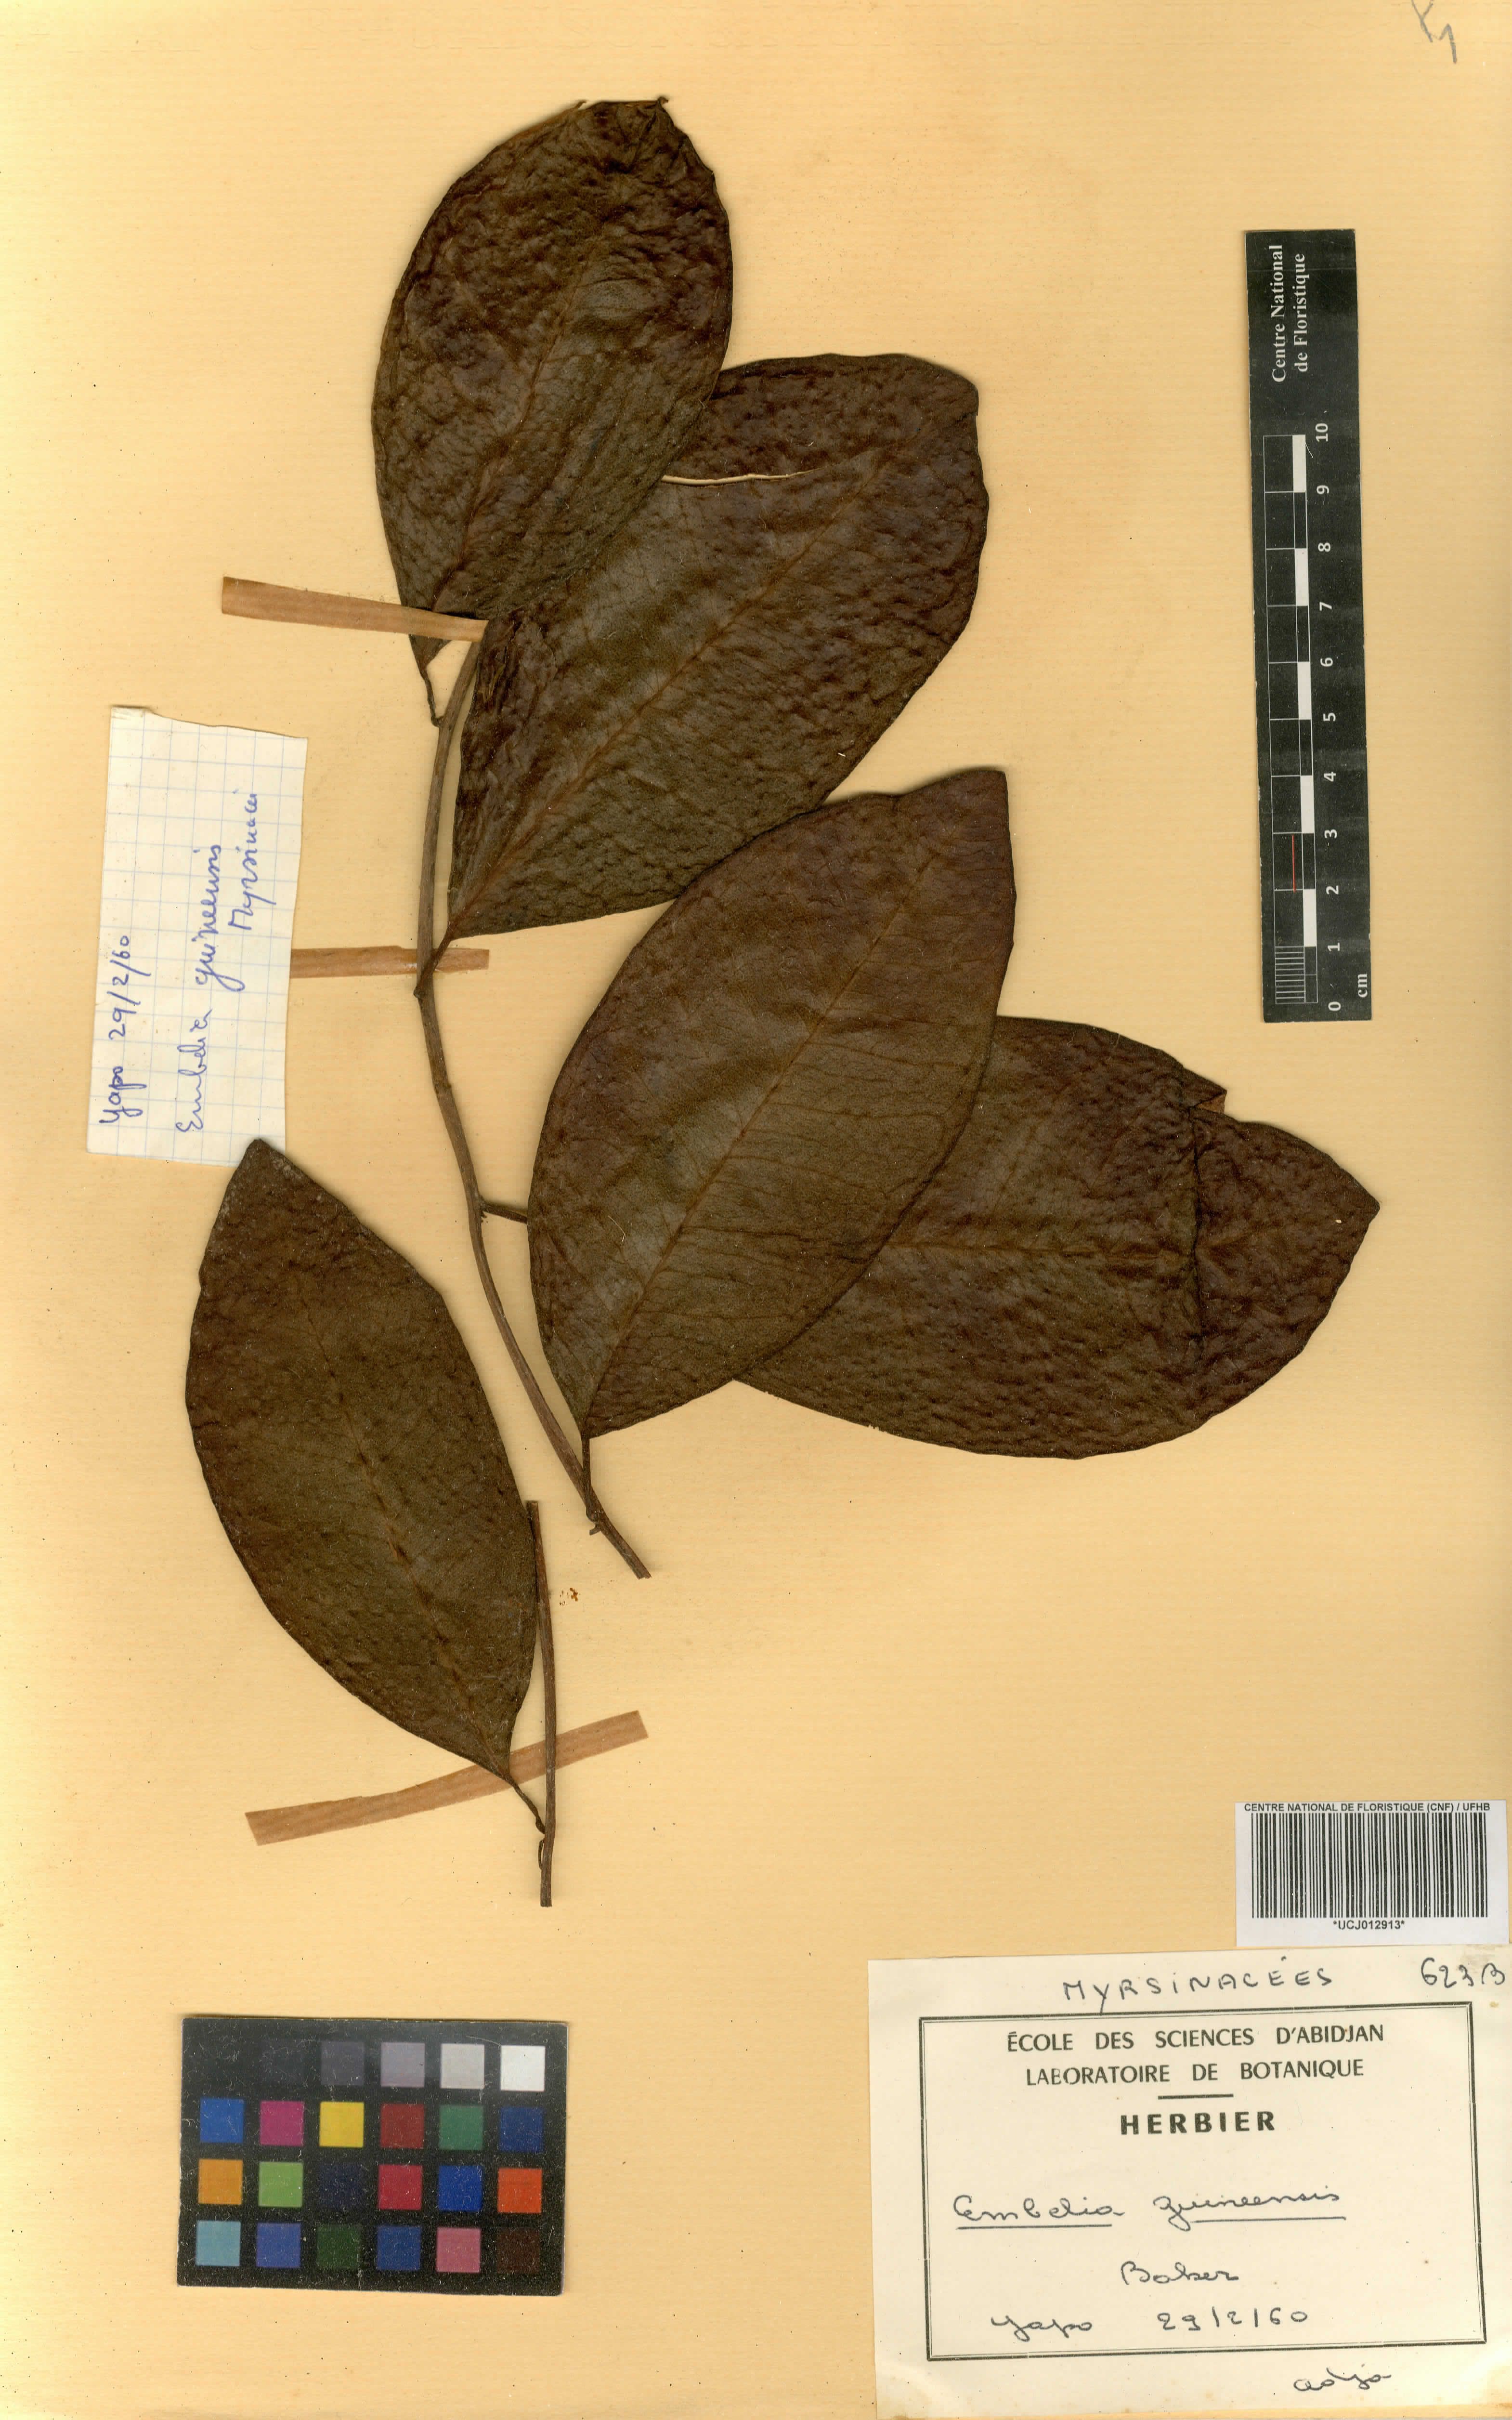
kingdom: Plantae
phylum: Tracheophyta
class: Magnoliopsida
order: Ericales
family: Primulaceae
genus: Embelia
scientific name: Embelia djalonensis
